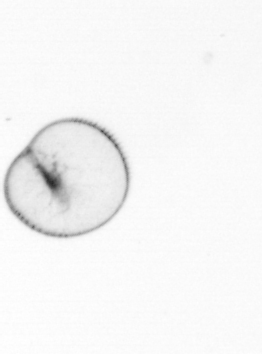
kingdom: Chromista
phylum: Myzozoa
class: Dinophyceae
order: Noctilucales
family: Noctilucaceae
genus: Noctiluca
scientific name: Noctiluca scintillans
